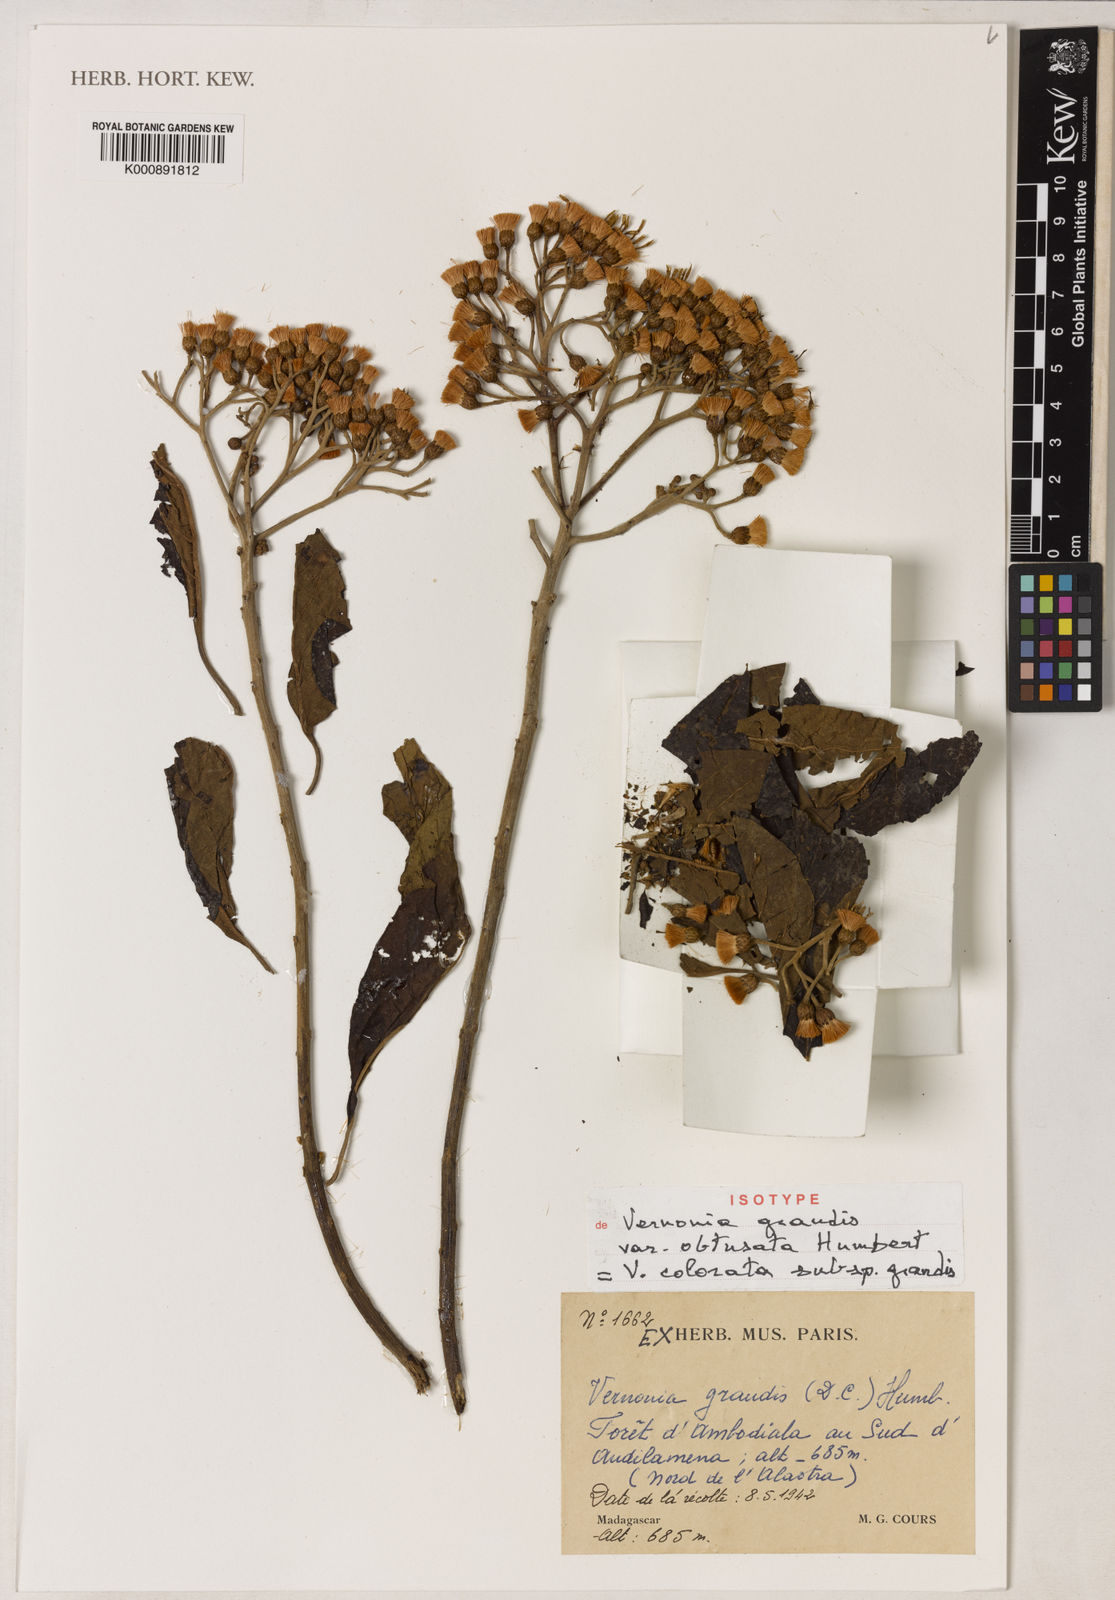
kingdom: Plantae
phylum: Tracheophyta
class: Magnoliopsida
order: Asterales
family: Asteraceae
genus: Vernonia
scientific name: Vernonia
